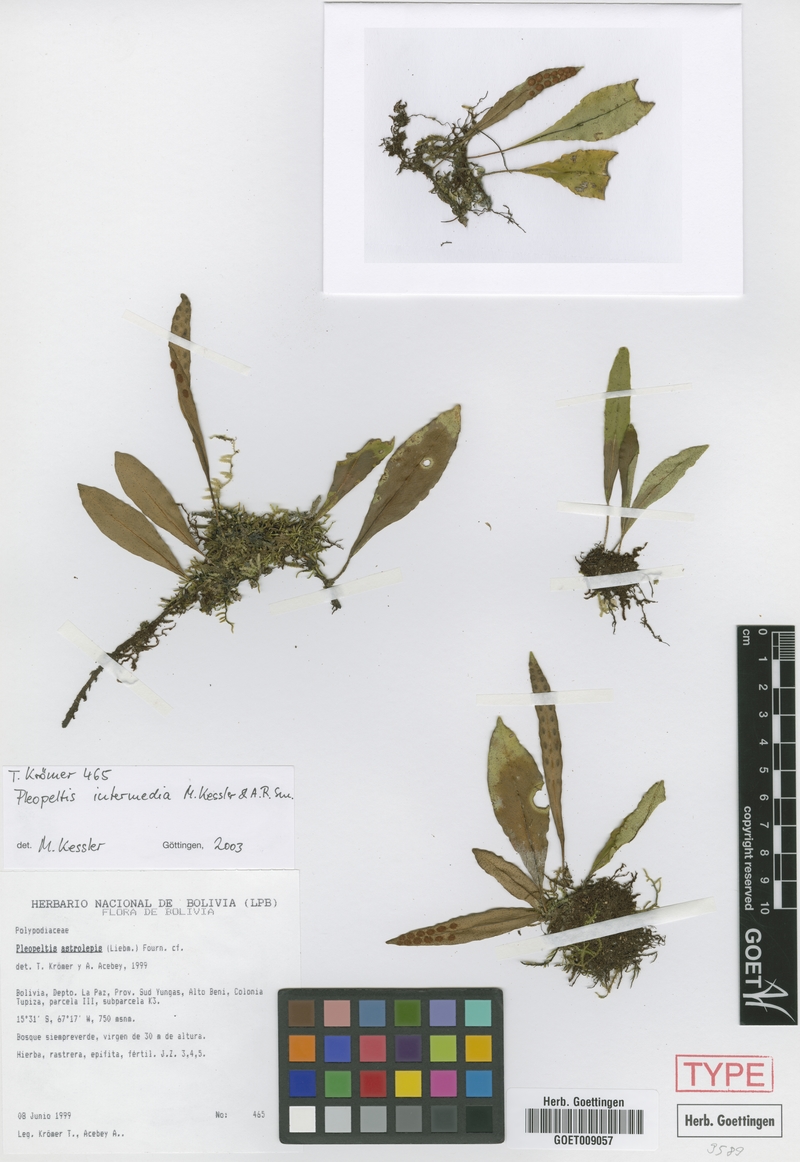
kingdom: Plantae
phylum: Tracheophyta
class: Polypodiopsida
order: Polypodiales
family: Polypodiaceae
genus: Pleopeltis
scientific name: Pleopeltis intermedia
